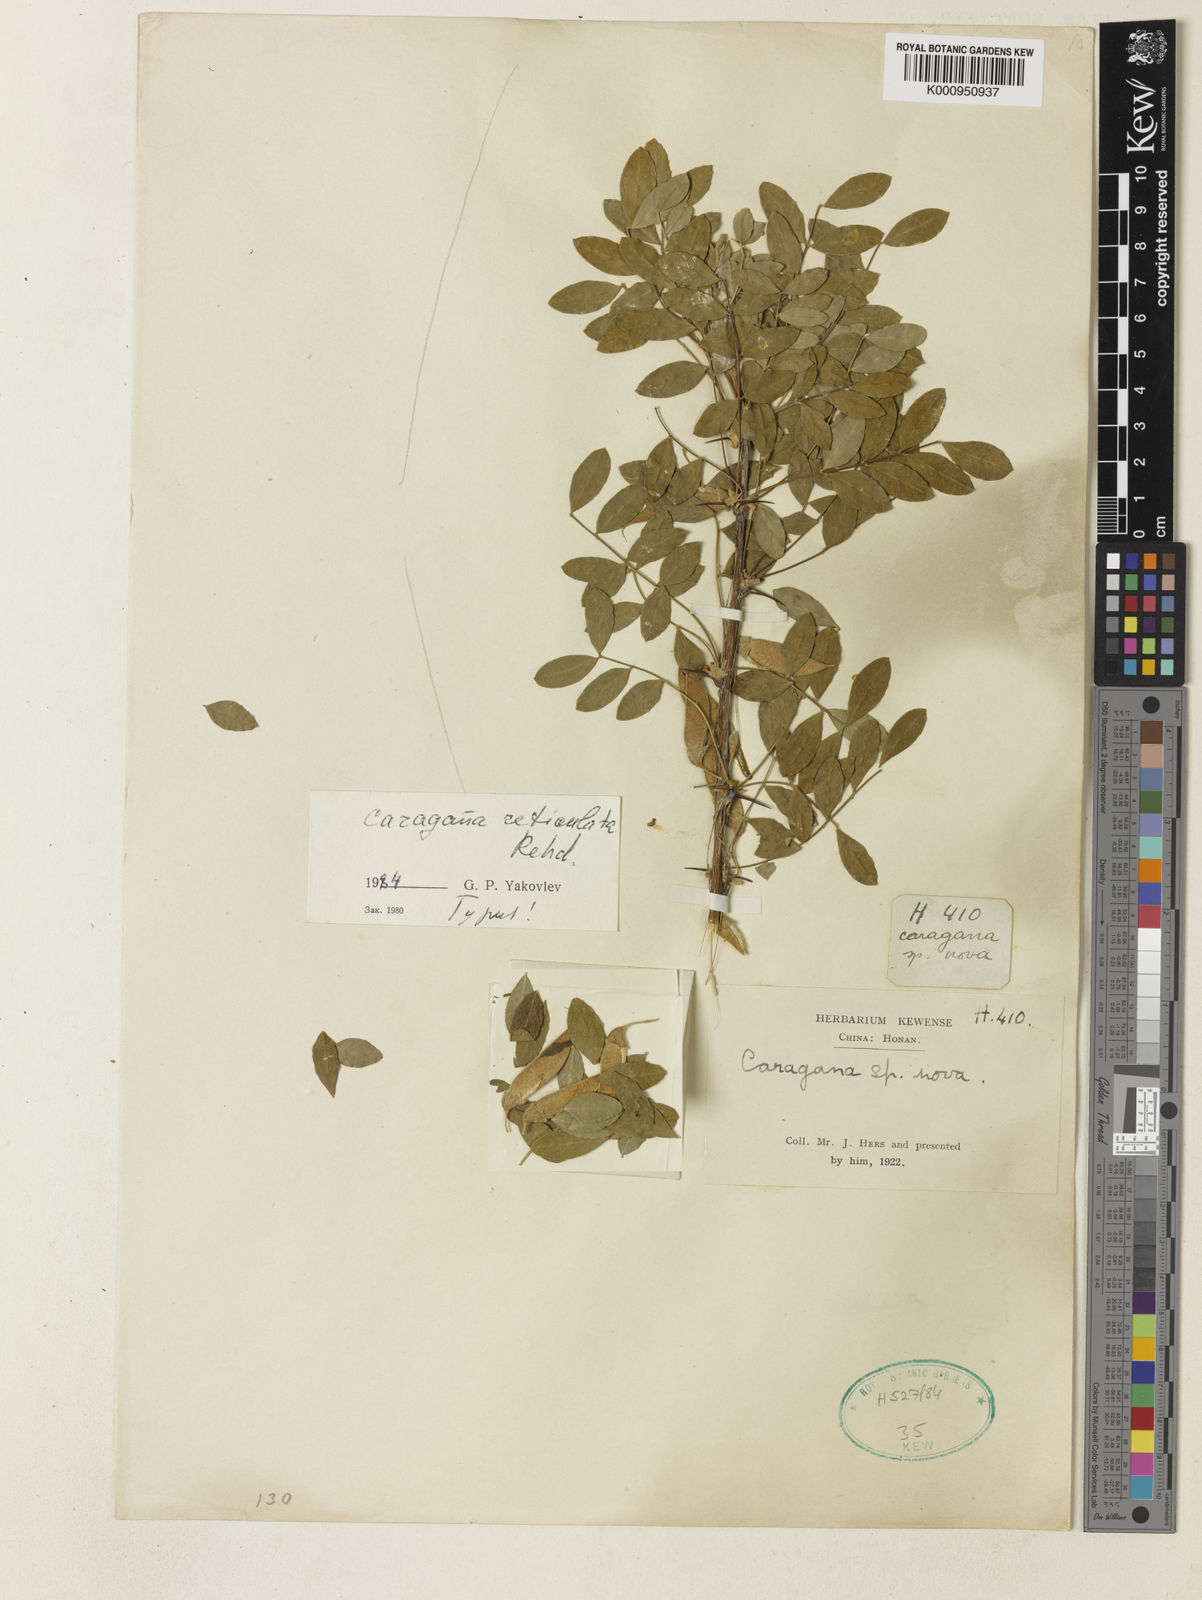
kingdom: Plantae
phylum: Tracheophyta
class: Magnoliopsida
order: Fabales
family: Fabaceae
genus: Caragana
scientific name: Caragana reticulata
